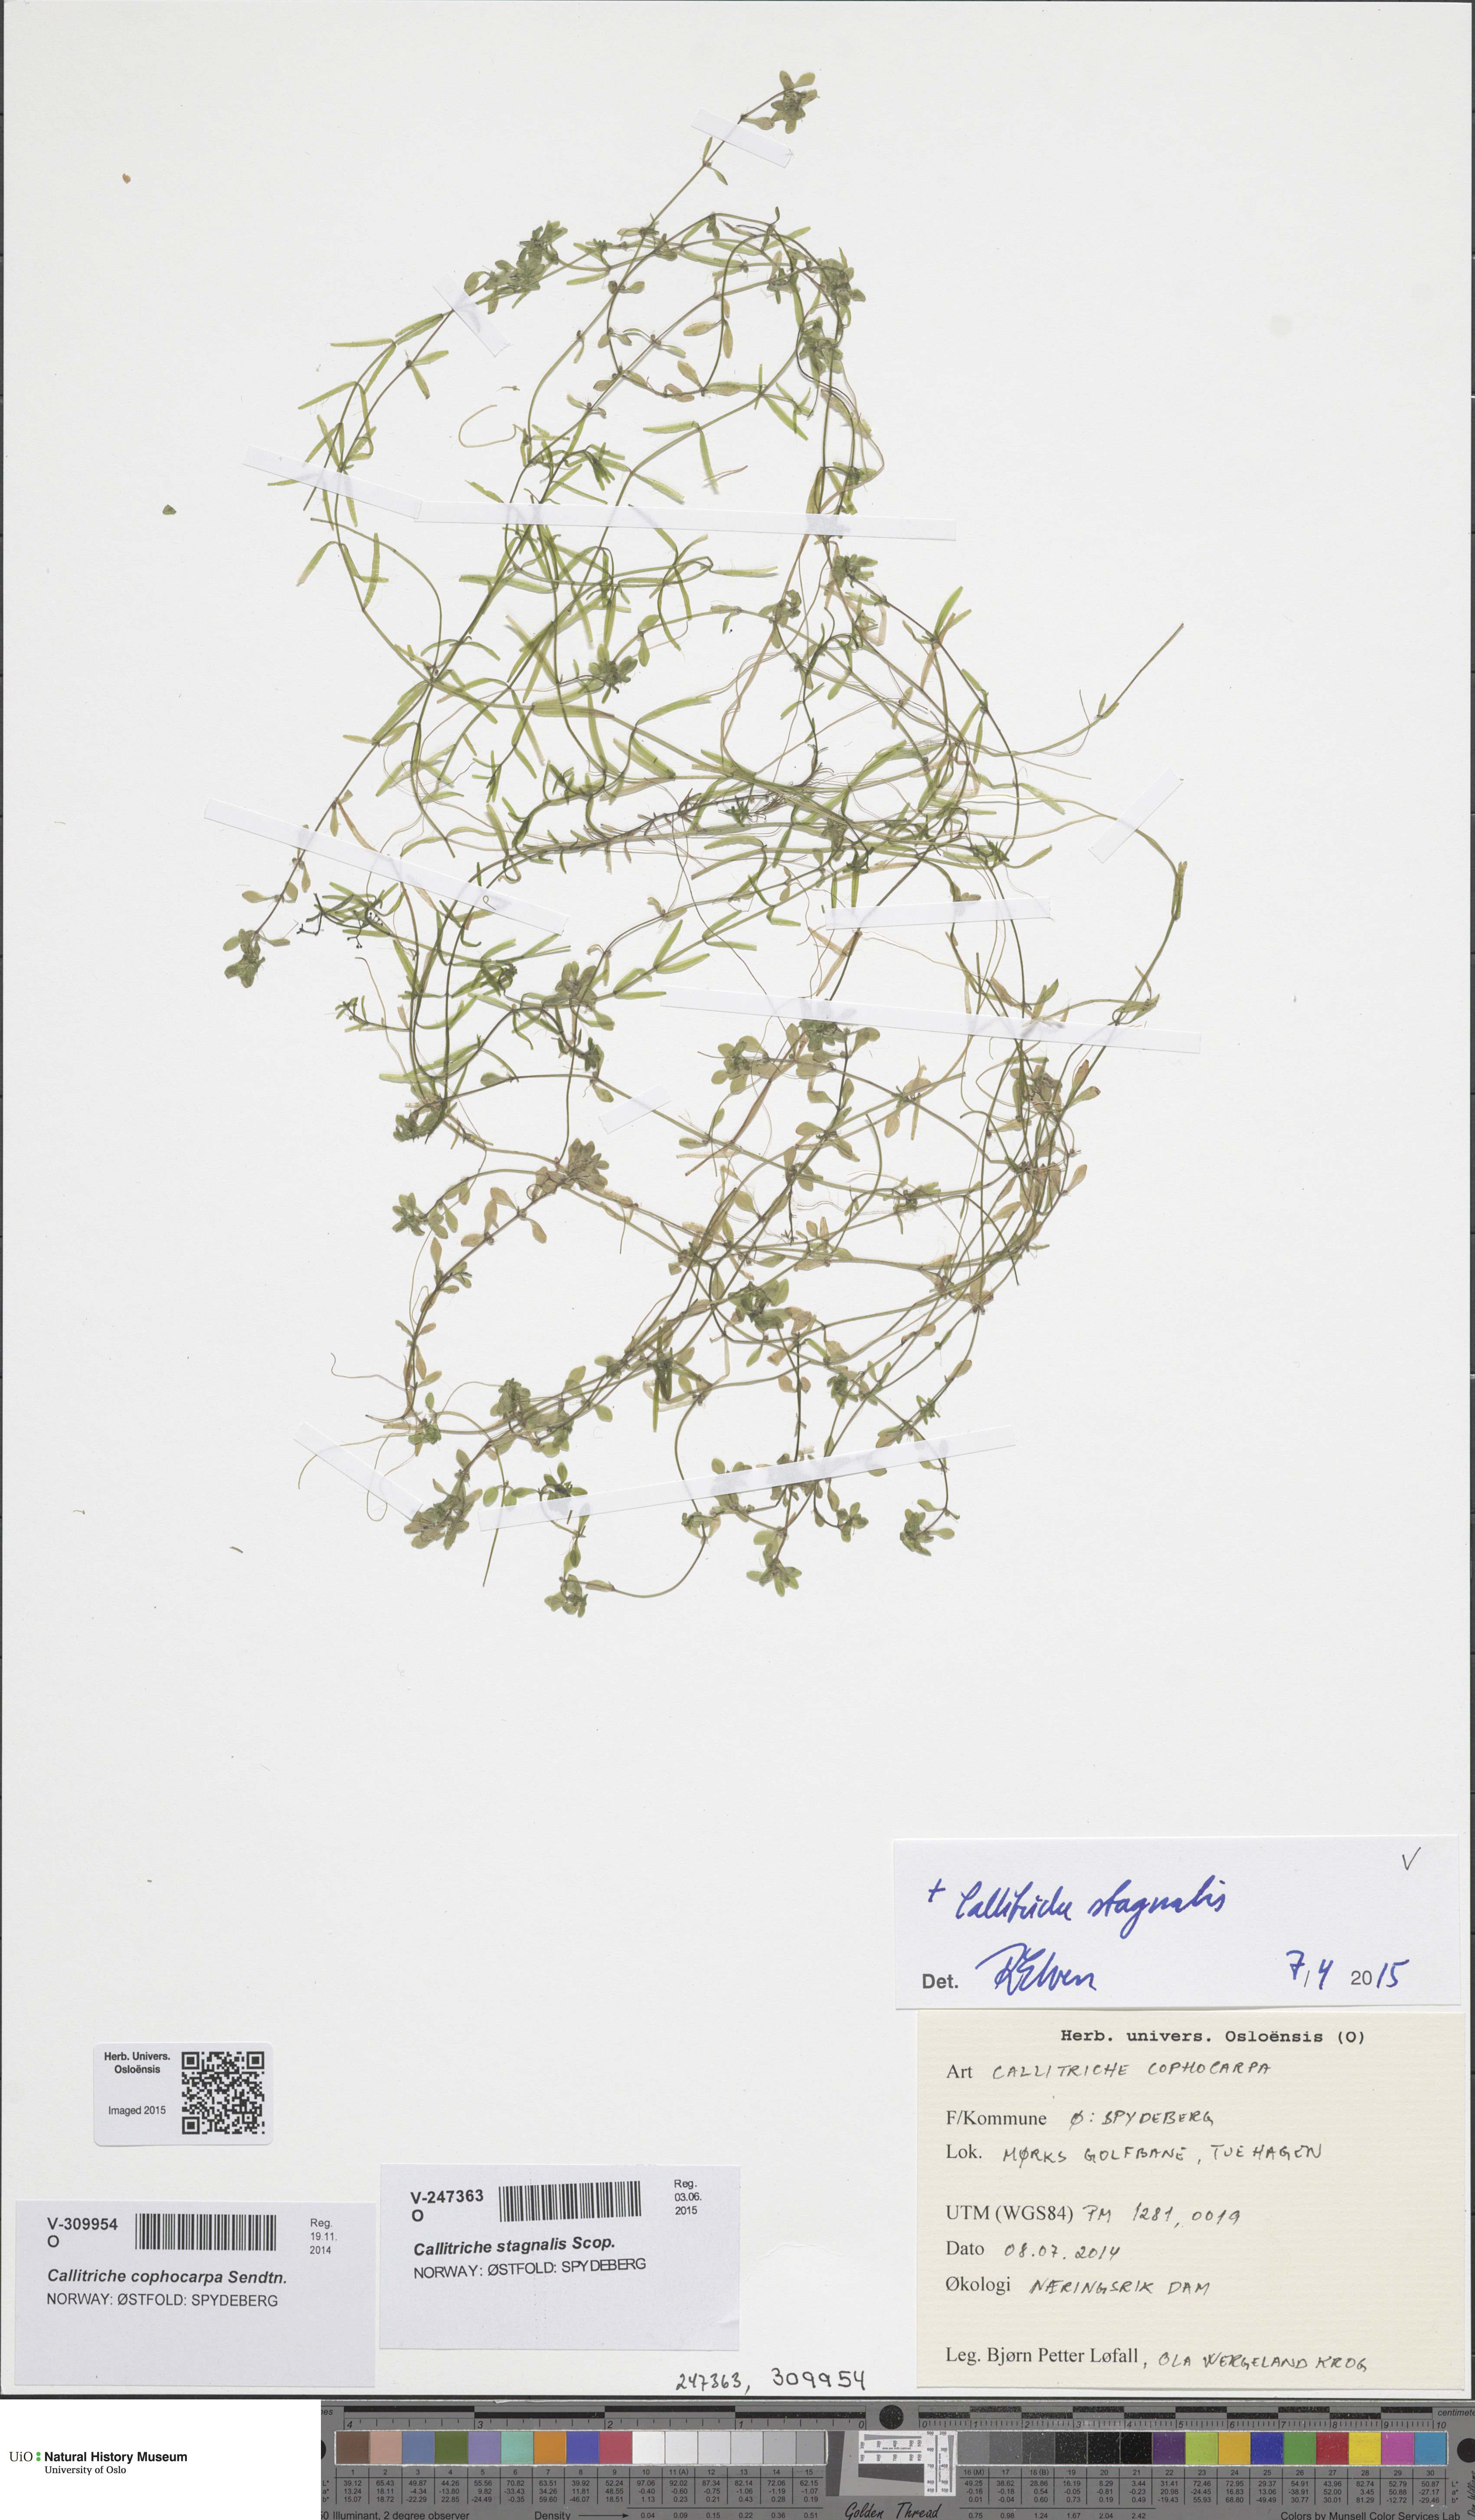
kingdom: Plantae
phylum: Tracheophyta
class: Magnoliopsida
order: Lamiales
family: Plantaginaceae
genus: Callitriche
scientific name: Callitriche stagnalis
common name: Common water-starwort
